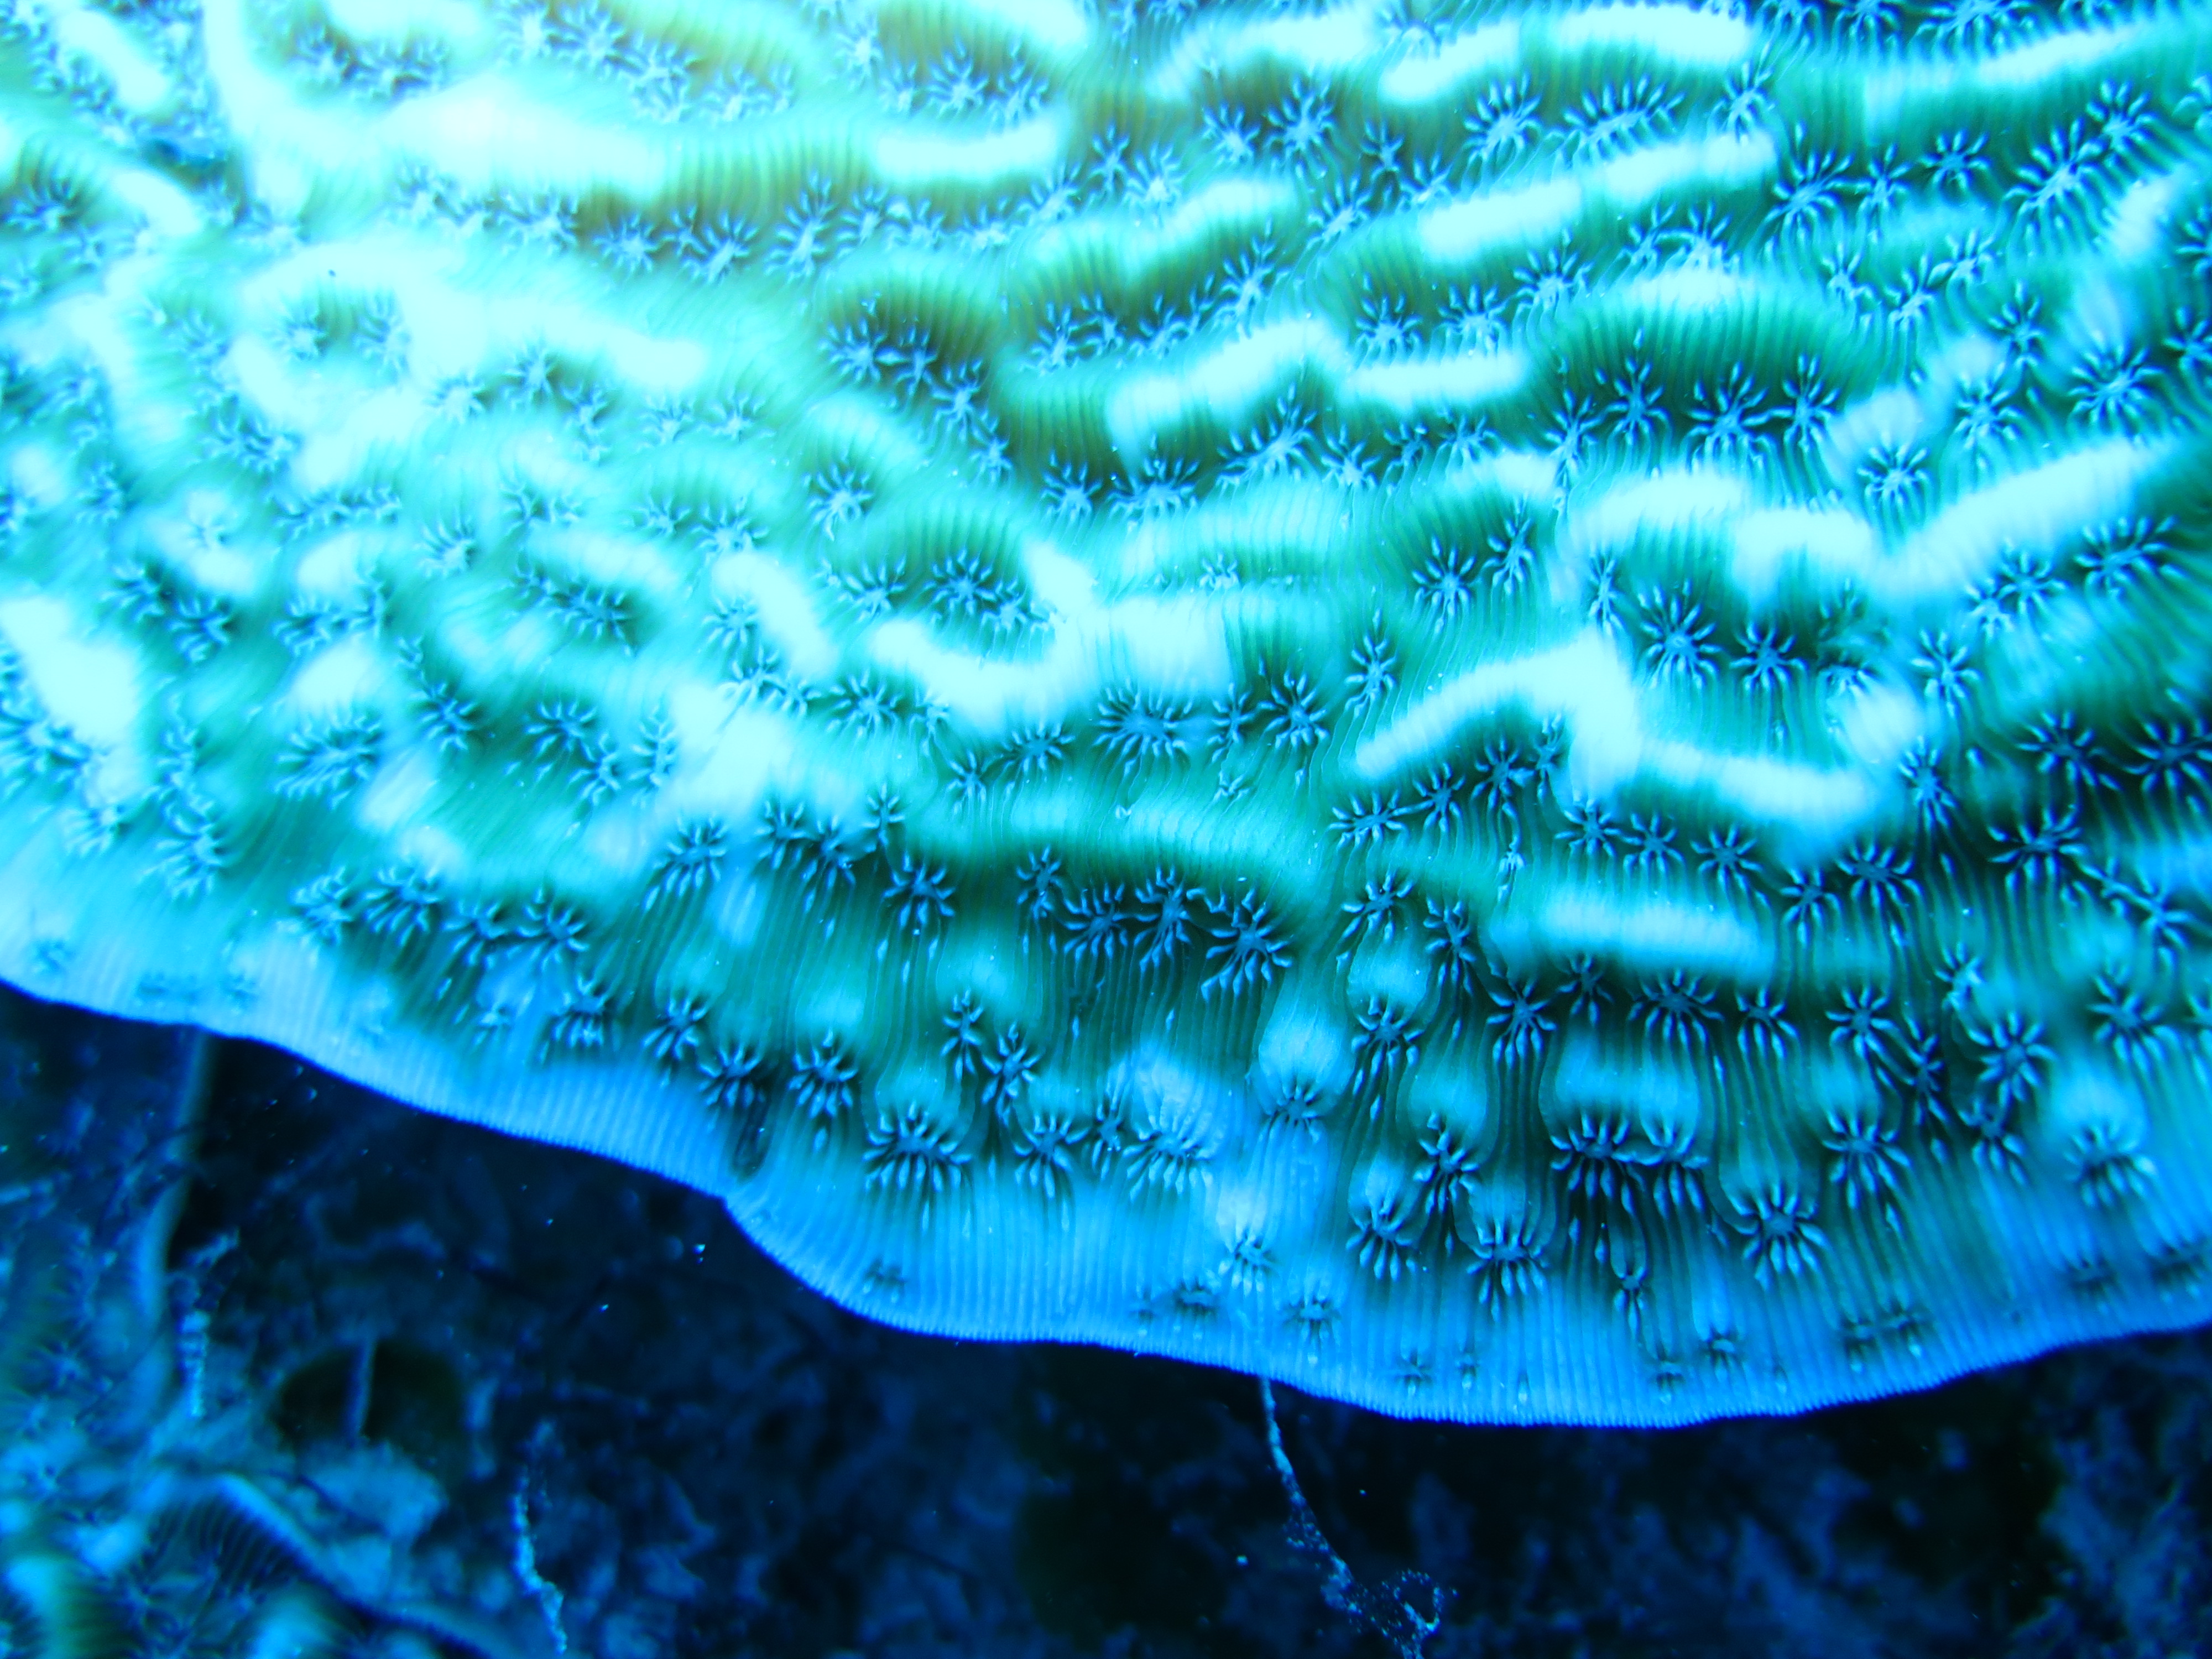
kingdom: Animalia
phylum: Cnidaria
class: Anthozoa
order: Scleractinia
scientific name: Scleractinia
